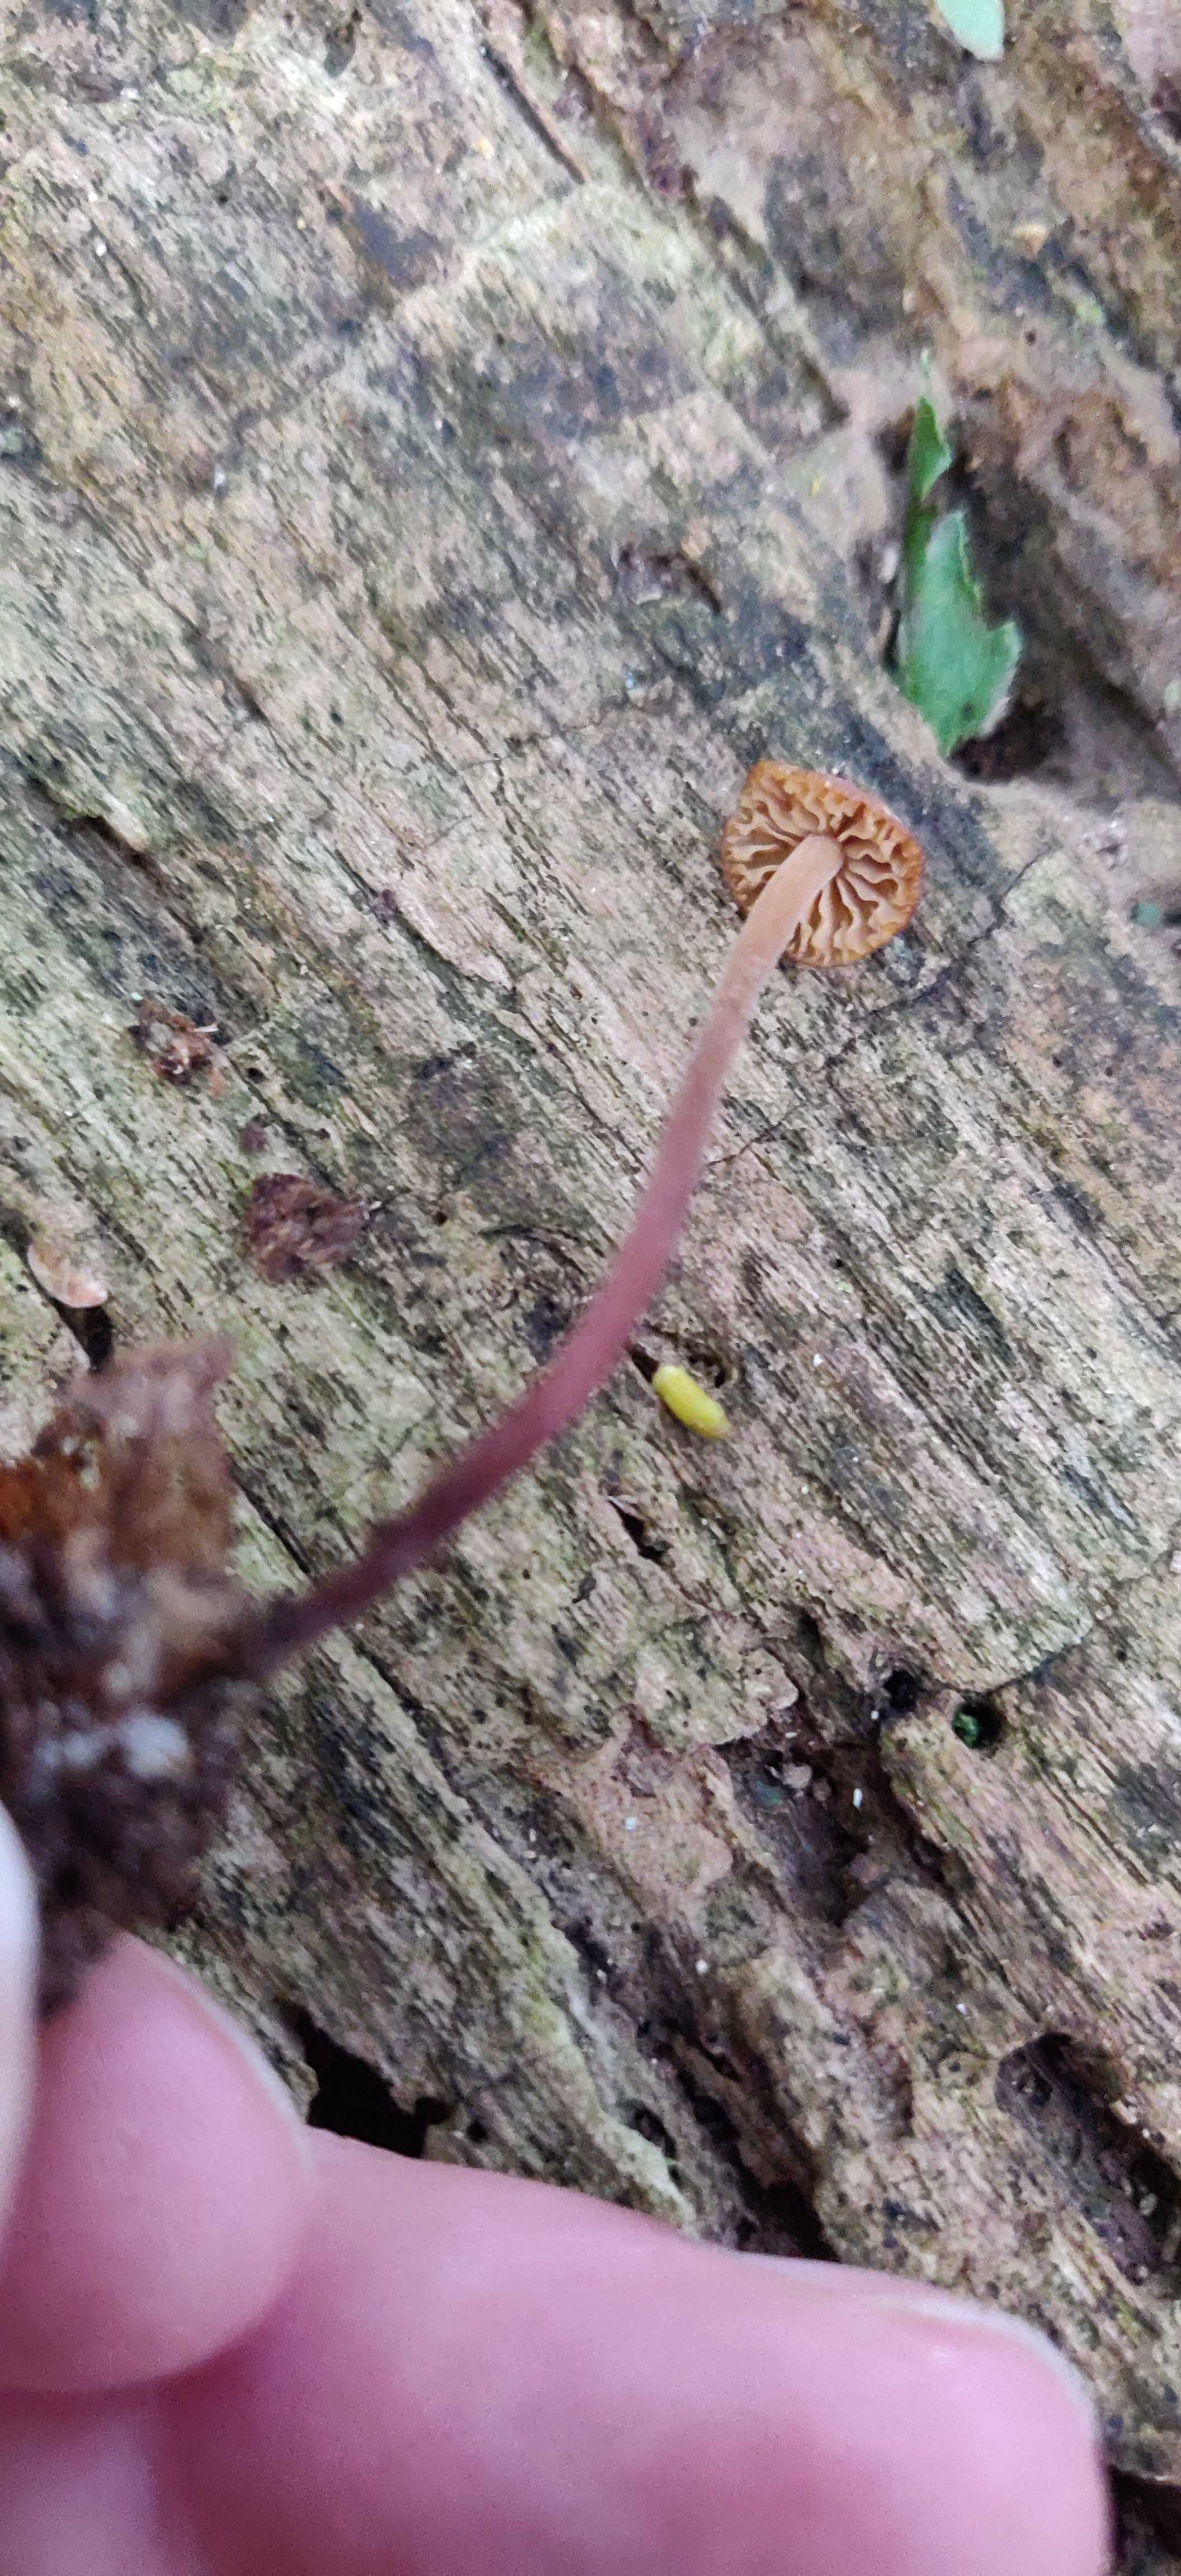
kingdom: Fungi
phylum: Basidiomycota
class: Agaricomycetes
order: Agaricales
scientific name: Agaricales
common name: champignonordenen
